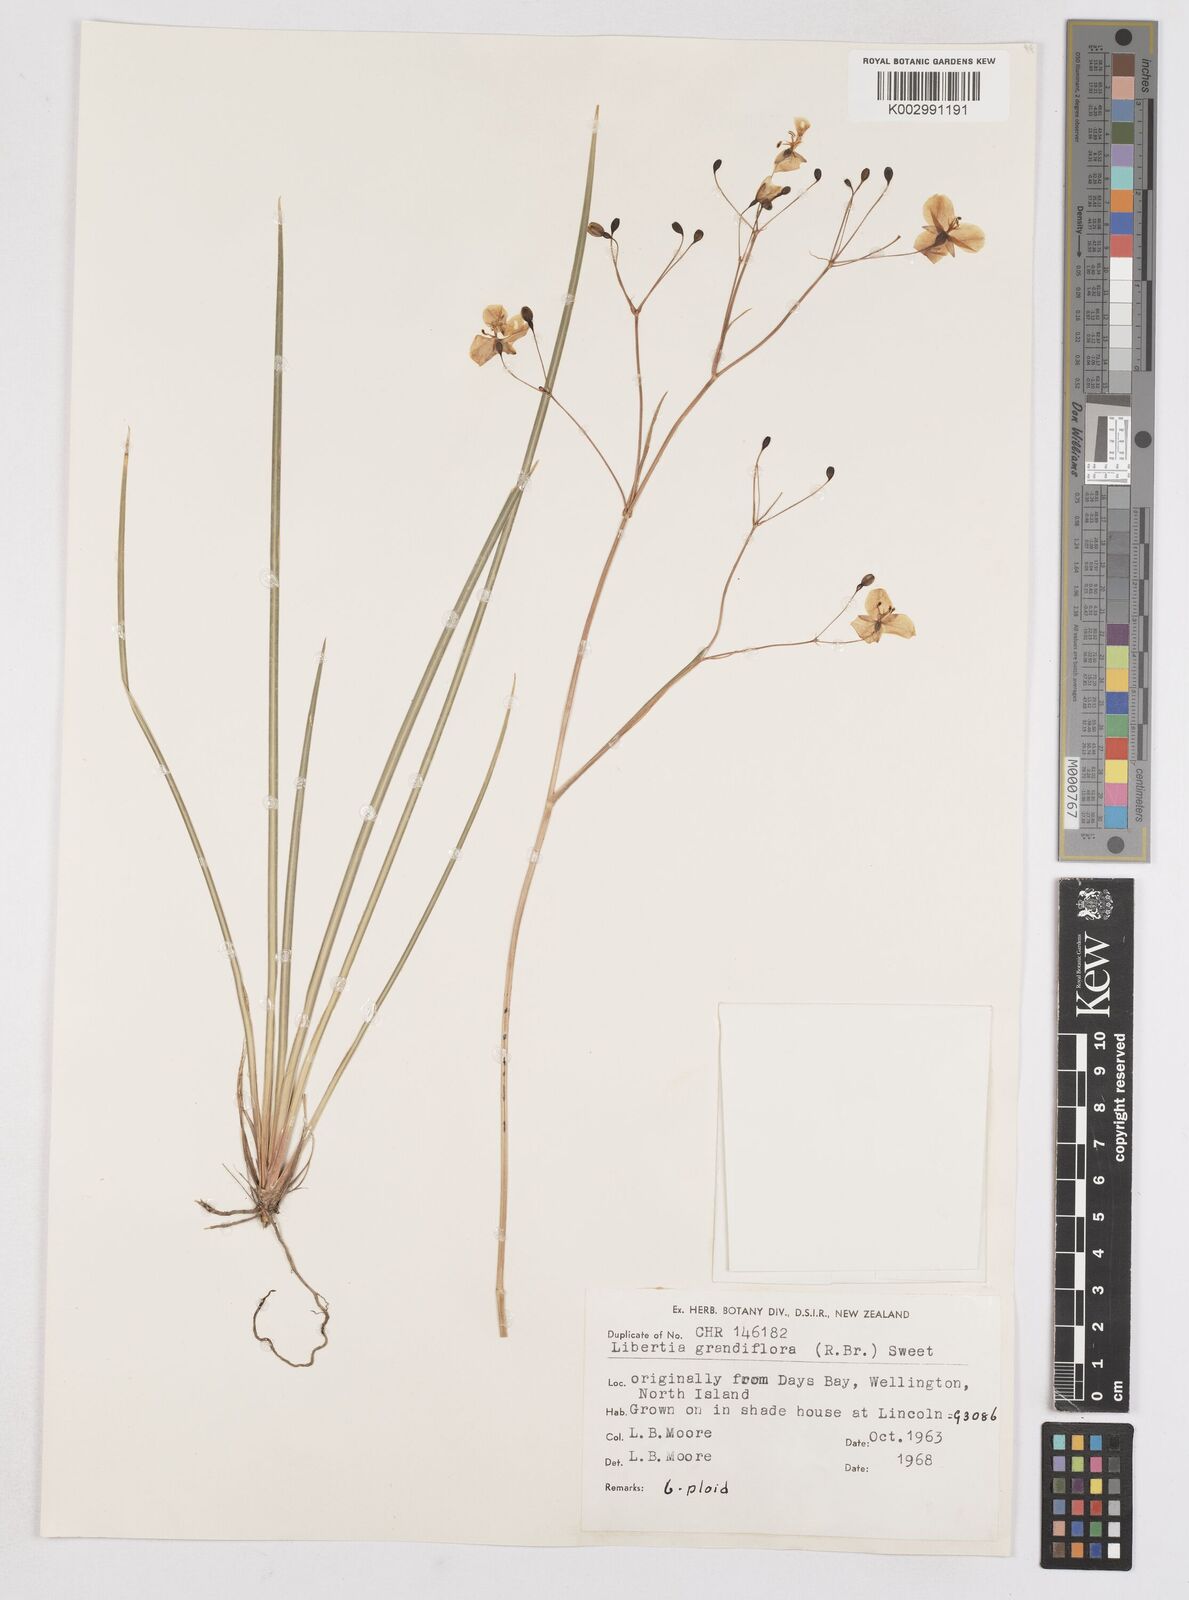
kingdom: Plantae
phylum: Tracheophyta
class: Liliopsida
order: Asparagales
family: Iridaceae
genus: Libertia
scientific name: Libertia grandiflora
